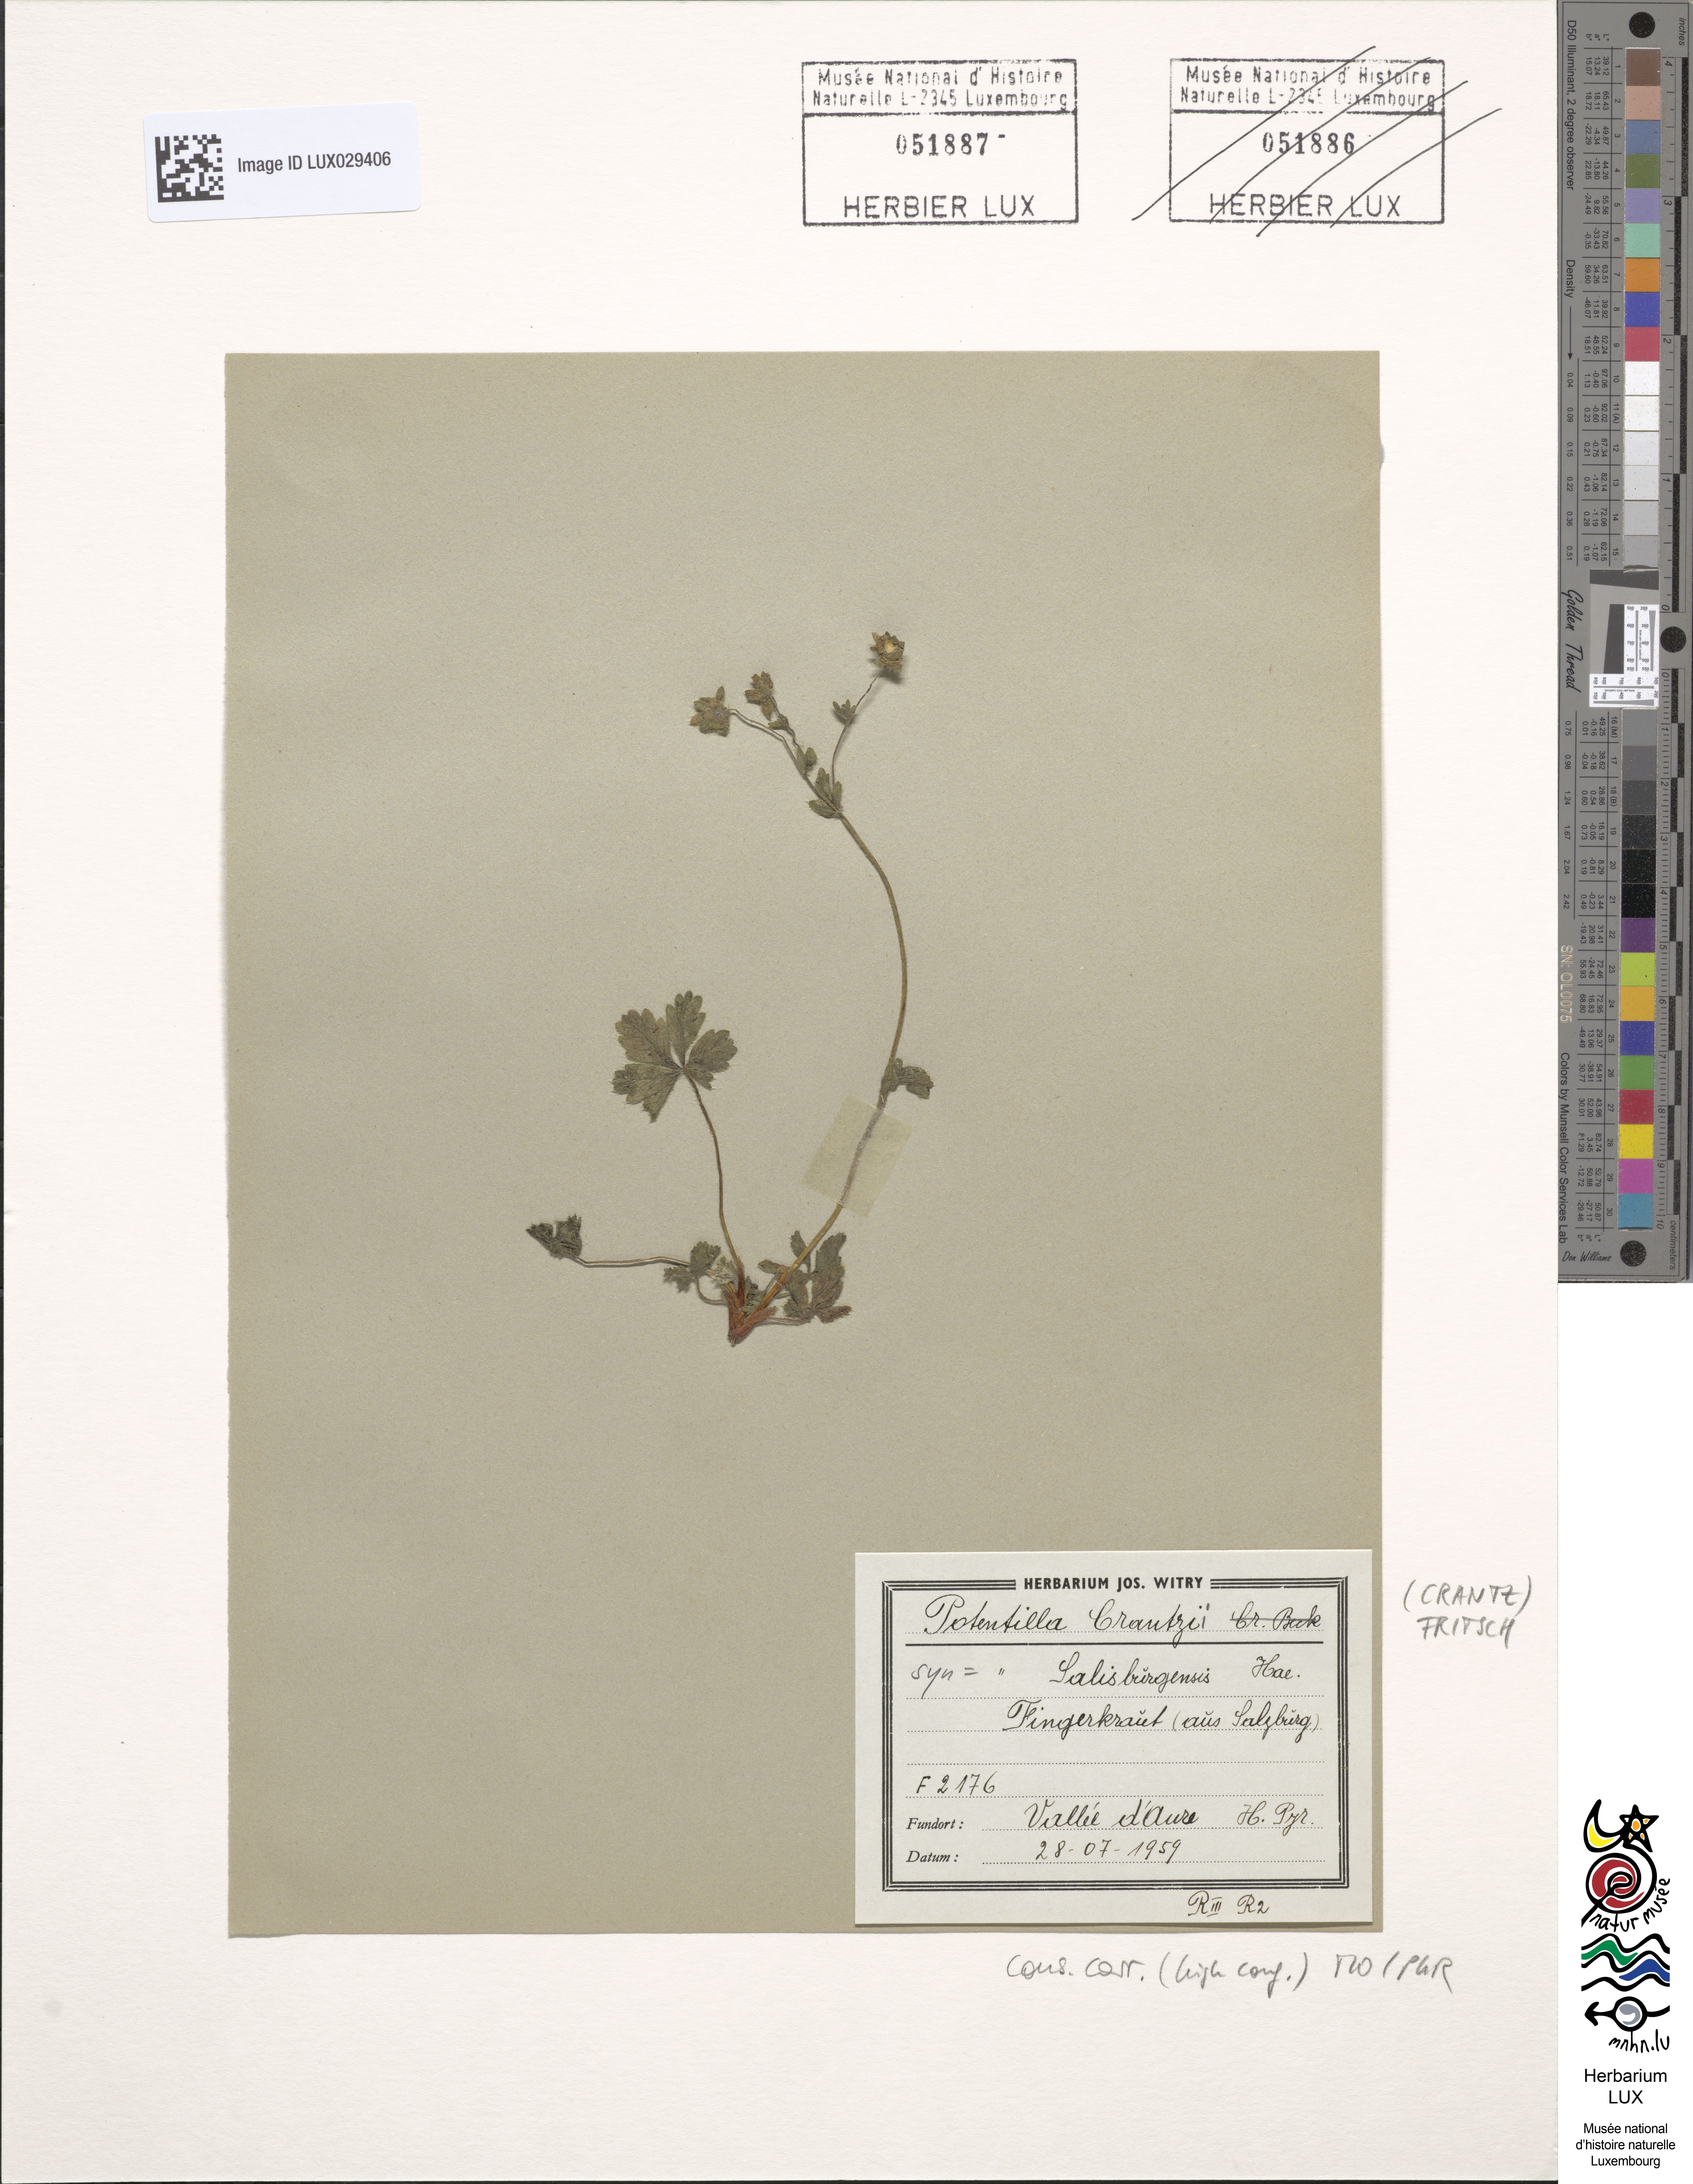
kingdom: Plantae
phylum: Tracheophyta
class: Magnoliopsida
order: Rosales
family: Rosaceae
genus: Potentilla
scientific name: Potentilla crantzii
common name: Alpine cinquefoil
